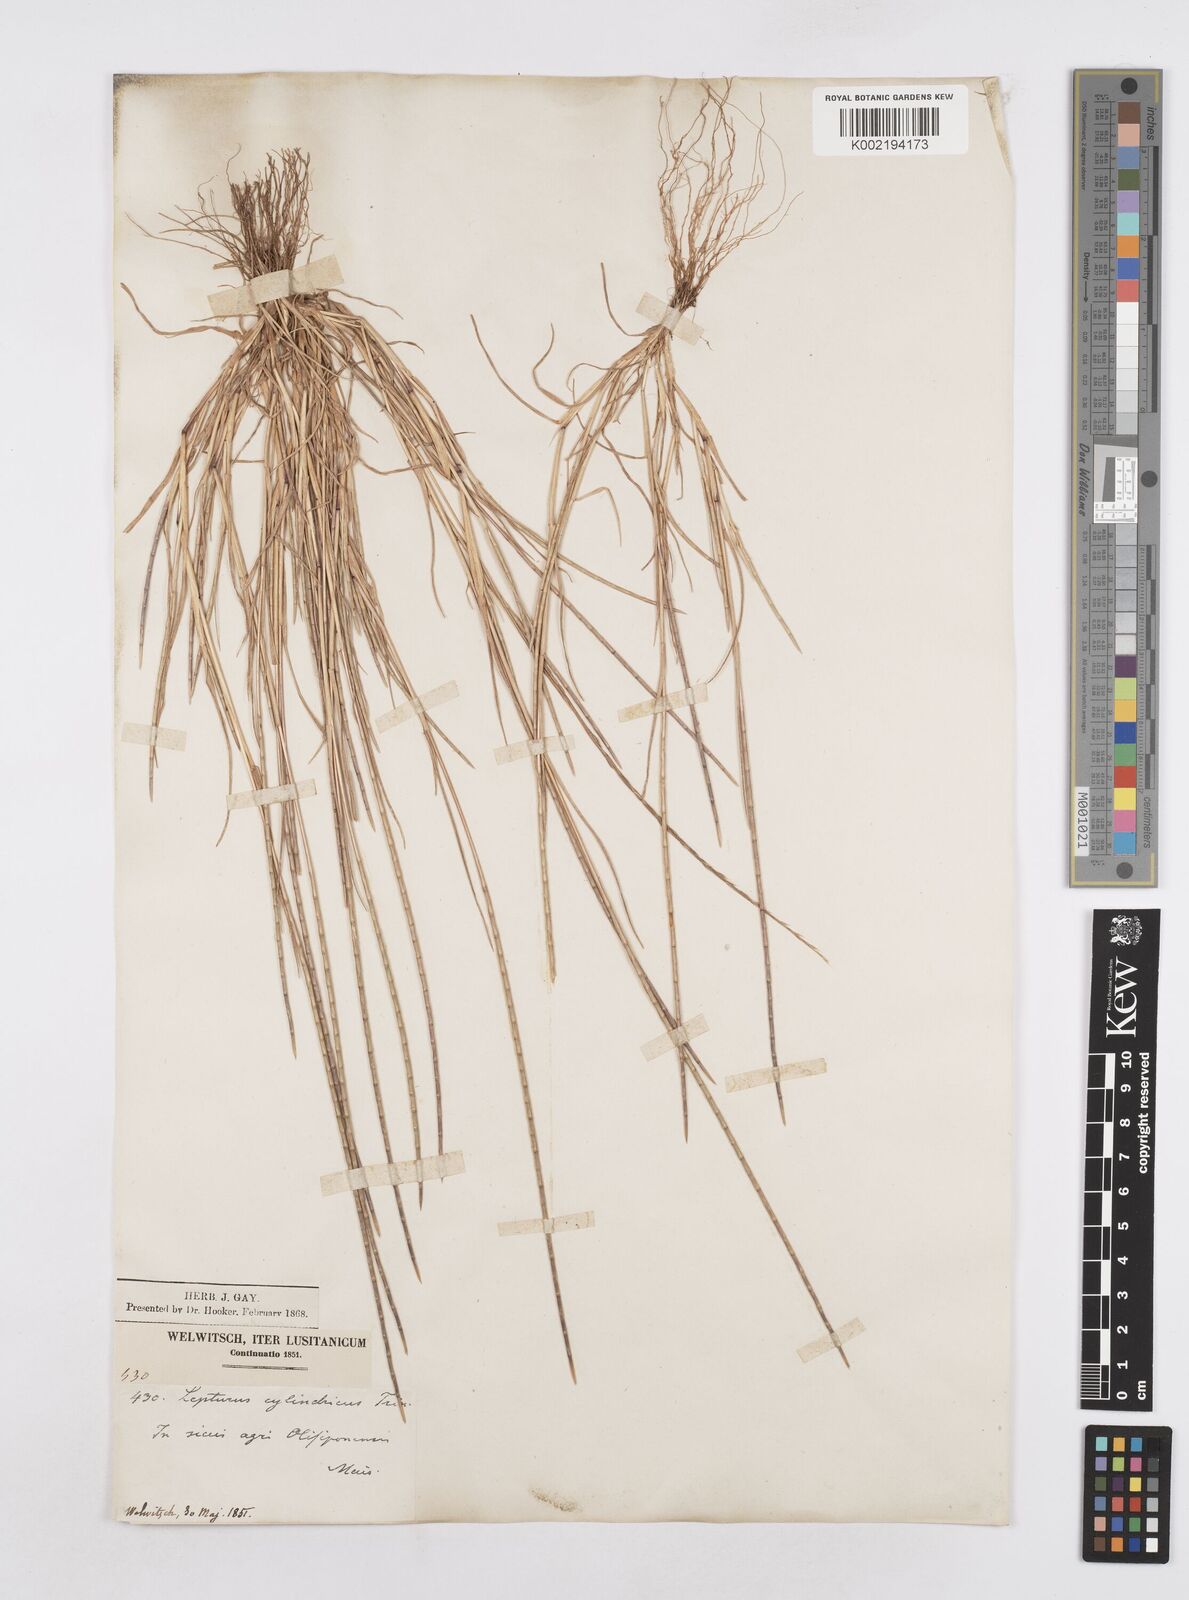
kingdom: Plantae
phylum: Tracheophyta
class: Liliopsida
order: Poales
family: Poaceae
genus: Parapholis
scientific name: Parapholis cylindrica
